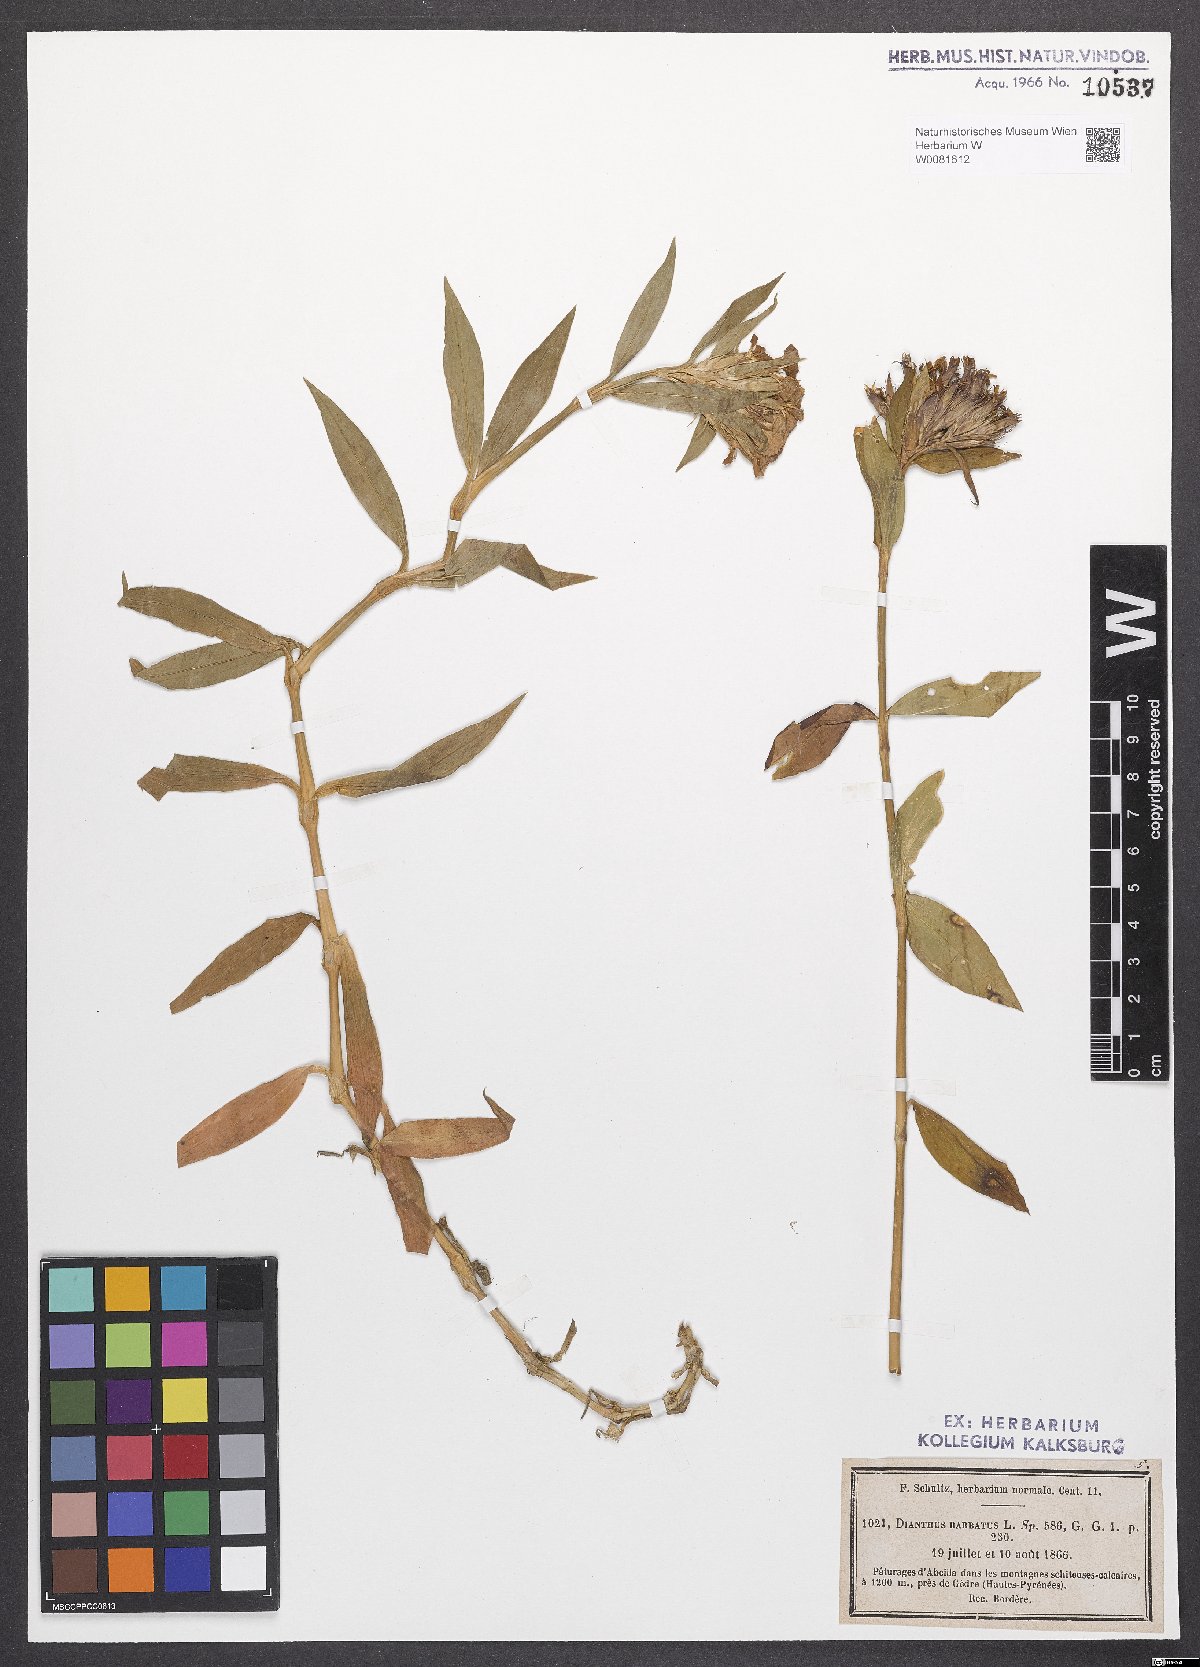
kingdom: Plantae
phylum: Tracheophyta
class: Magnoliopsida
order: Caryophyllales
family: Caryophyllaceae
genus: Dianthus
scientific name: Dianthus barbatus
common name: Sweet-william
